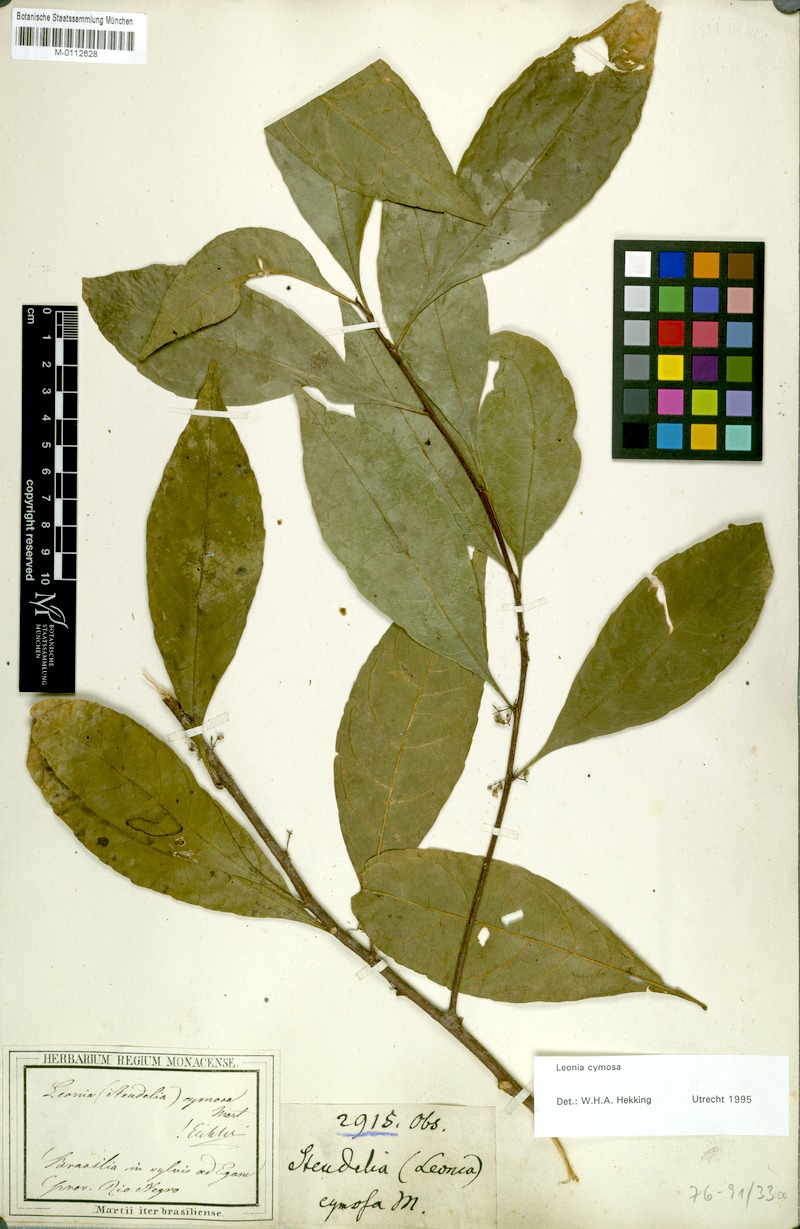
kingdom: Plantae
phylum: Tracheophyta
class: Magnoliopsida
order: Malpighiales
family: Violaceae
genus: Leonia
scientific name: Leonia cymosa
